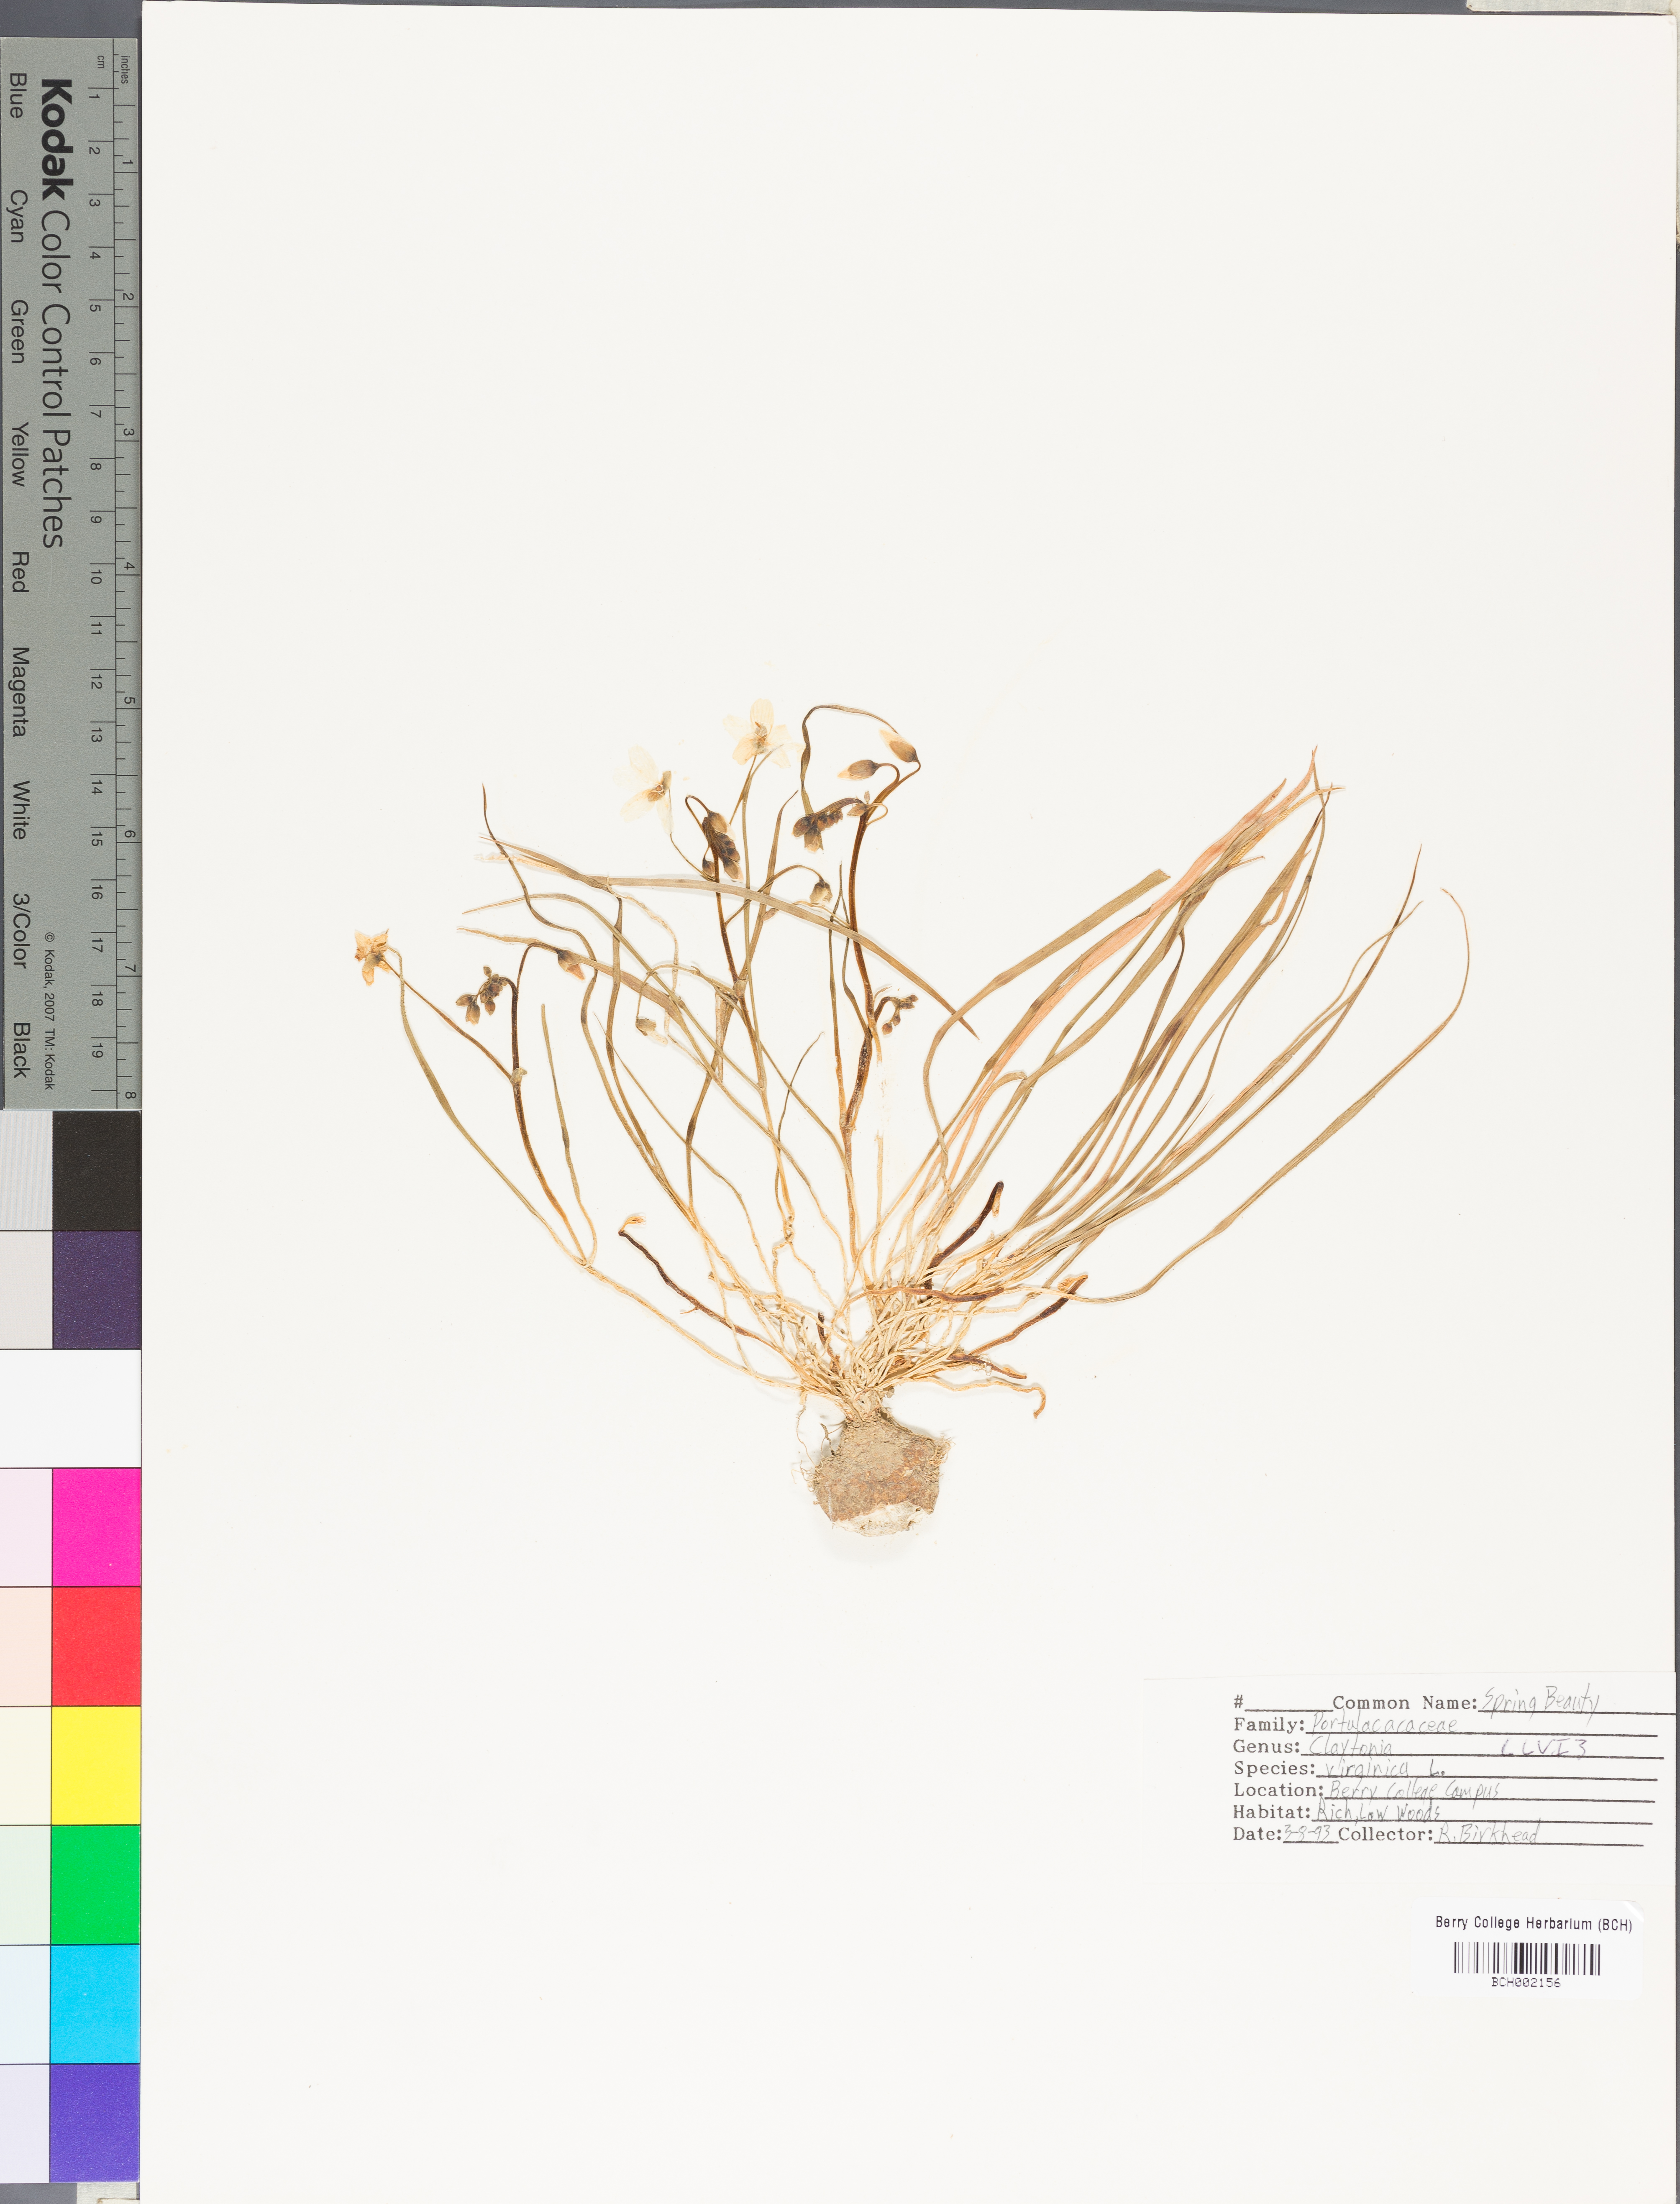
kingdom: Plantae
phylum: Tracheophyta
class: Magnoliopsida
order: Caryophyllales
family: Montiaceae
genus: Claytonia
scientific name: Claytonia virginica
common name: Virginia springbeauty
